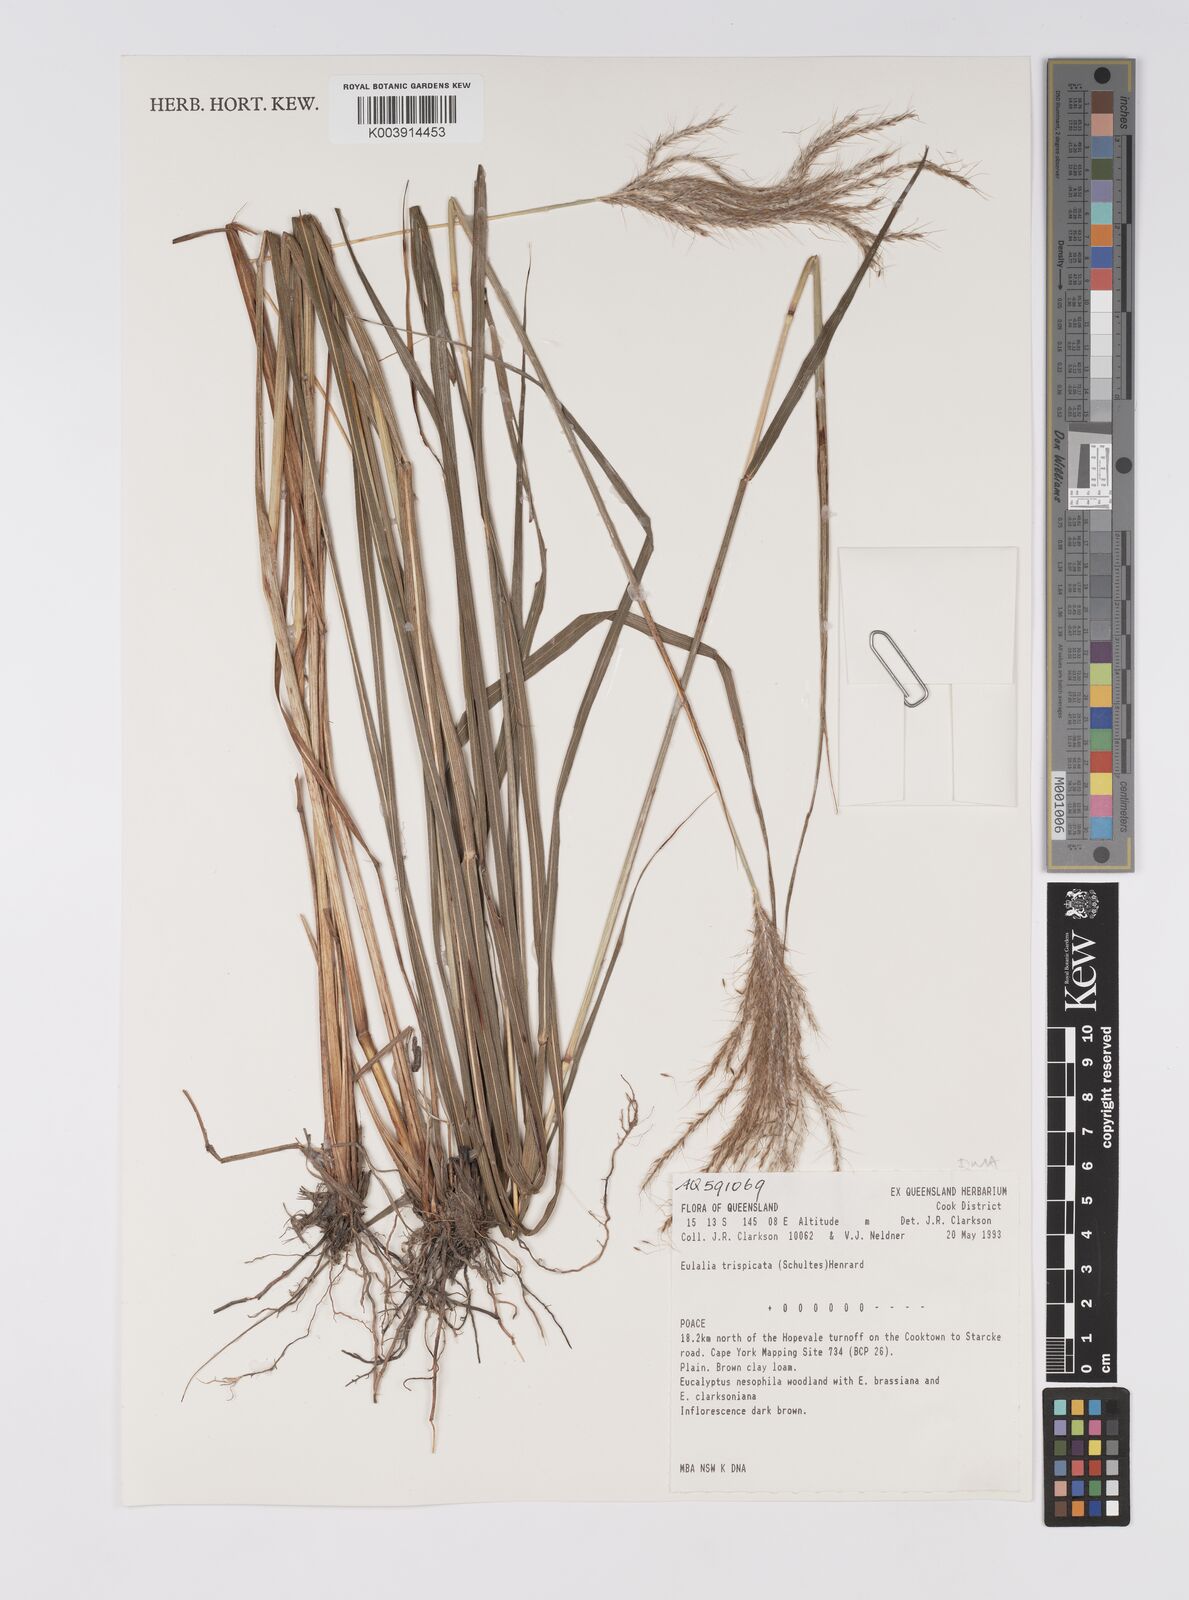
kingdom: Plantae
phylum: Tracheophyta
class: Liliopsida
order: Poales
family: Poaceae
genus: Pseudopogonatherum
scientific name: Pseudopogonatherum trispicatum
